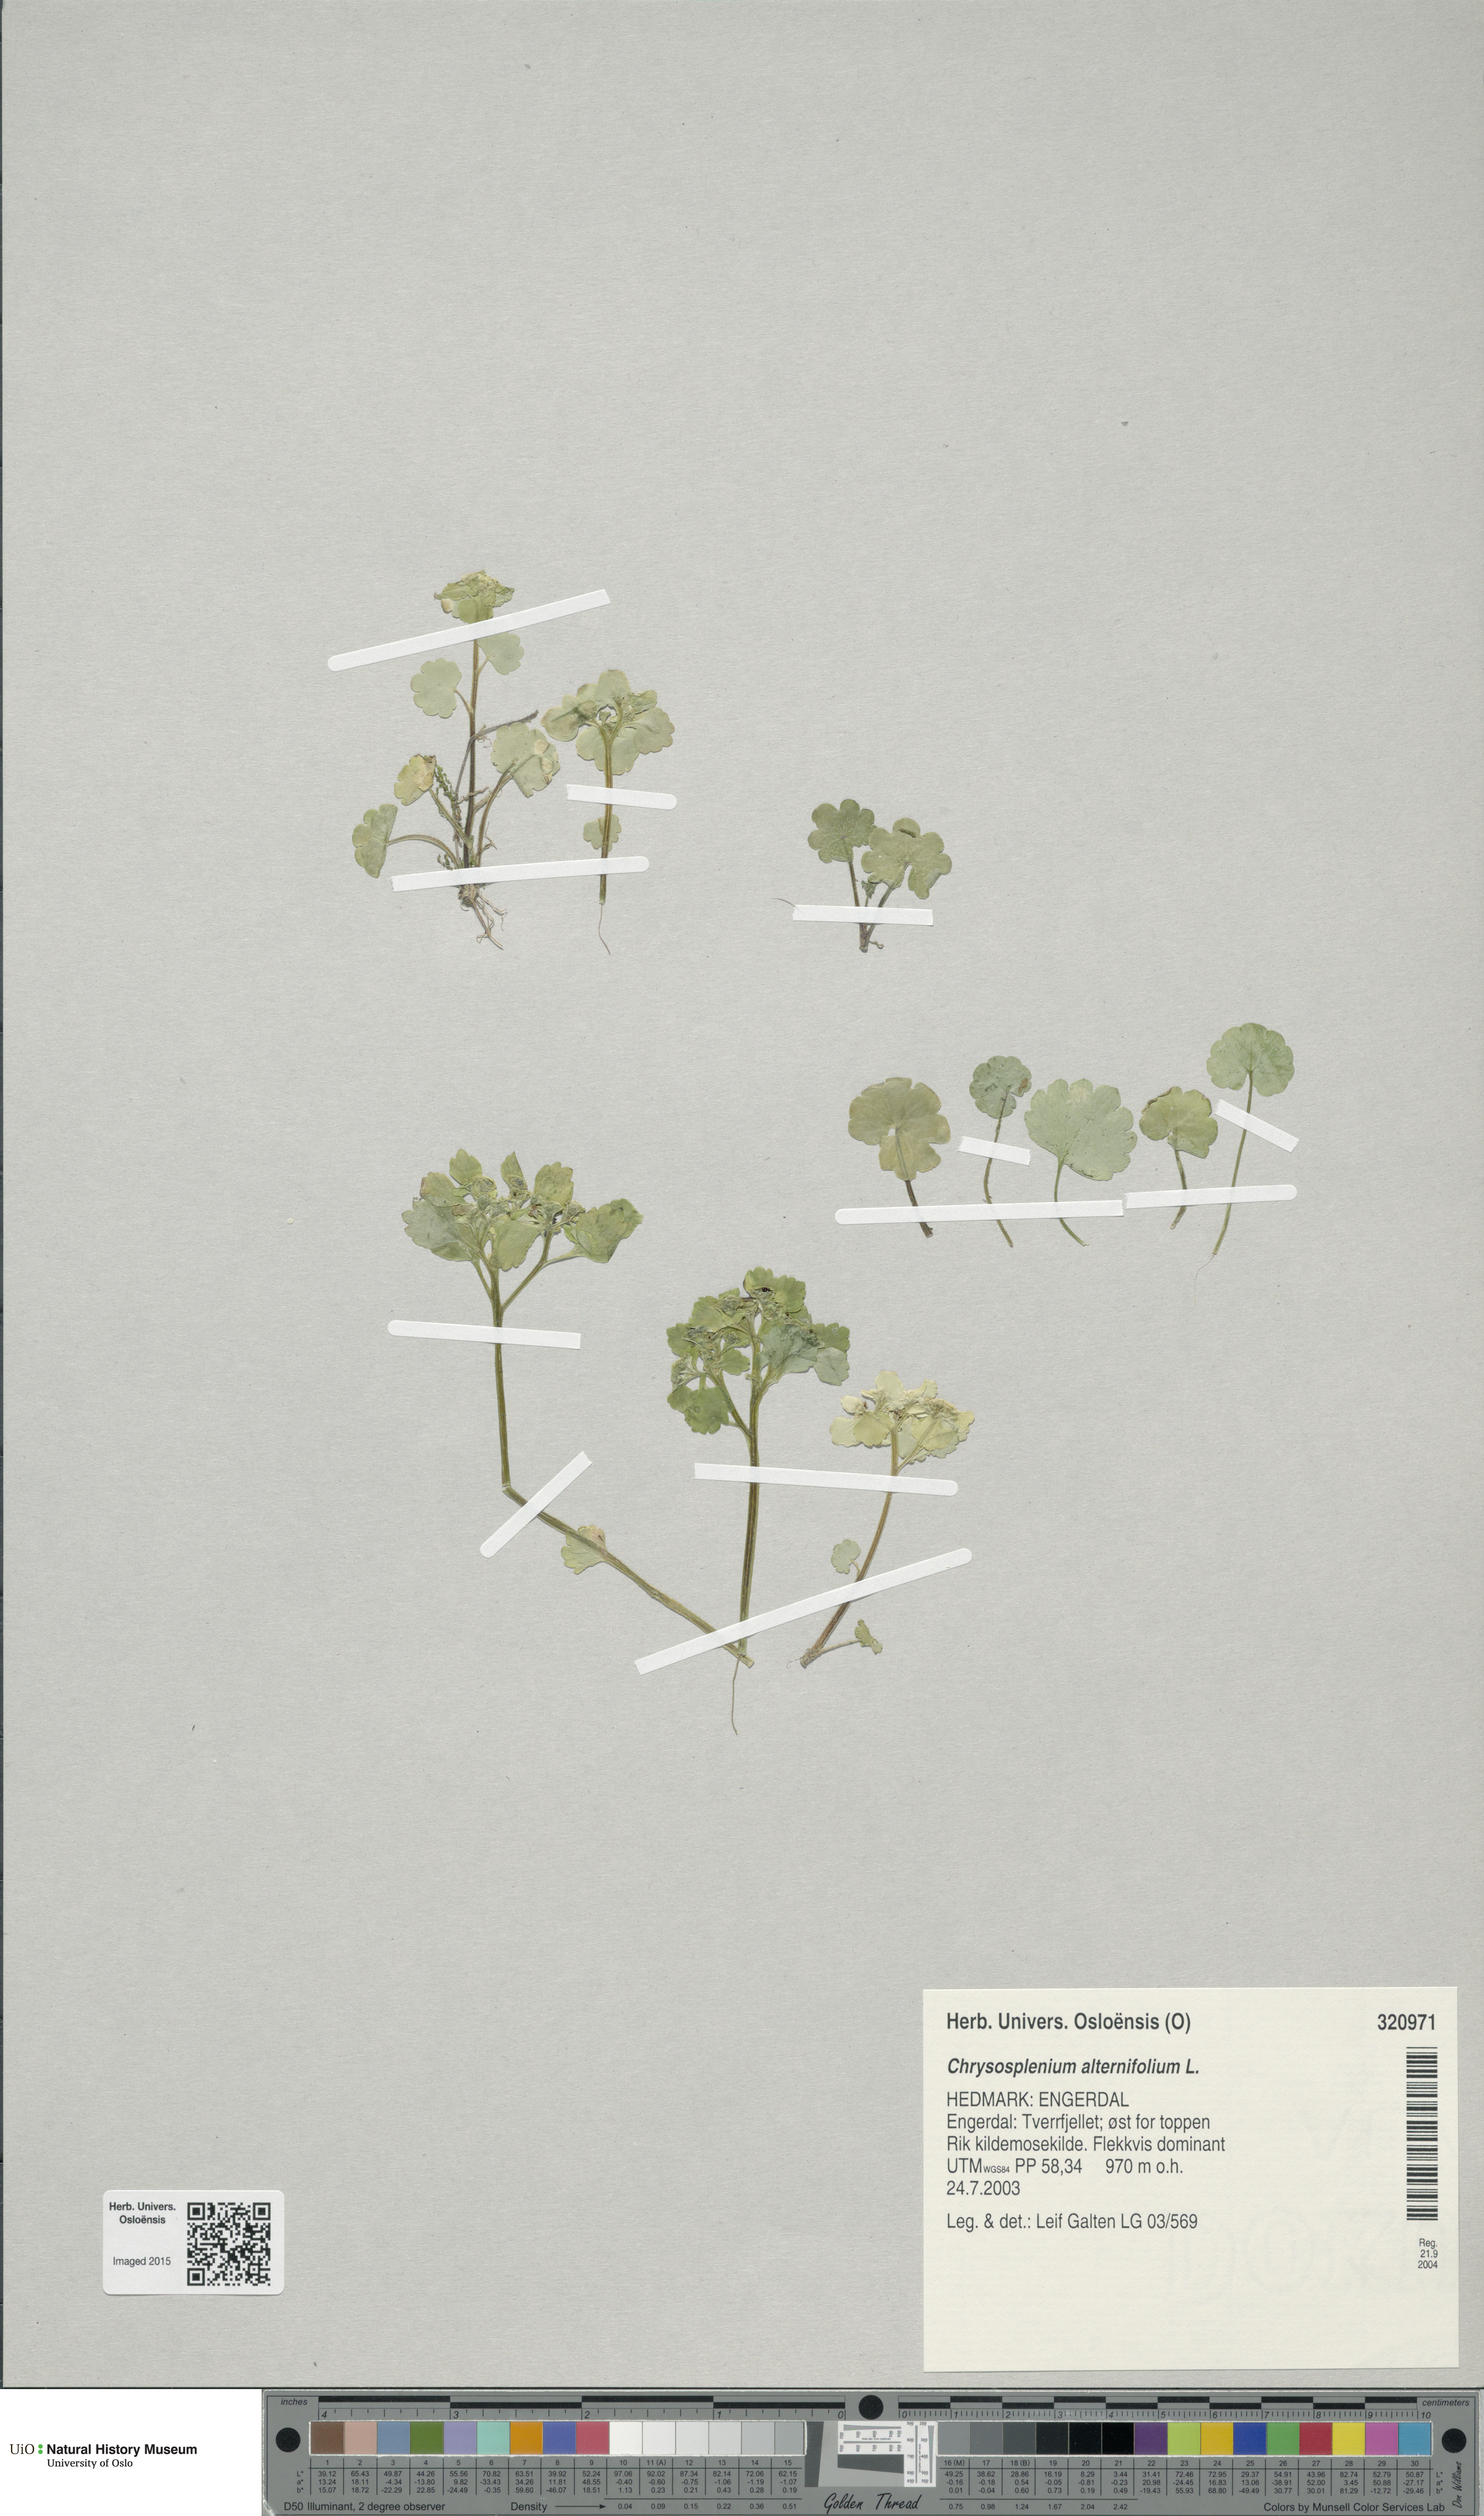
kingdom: Plantae
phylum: Tracheophyta
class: Magnoliopsida
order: Saxifragales
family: Saxifragaceae
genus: Chrysosplenium
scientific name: Chrysosplenium alternifolium
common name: Alternate-leaved golden-saxifrage
